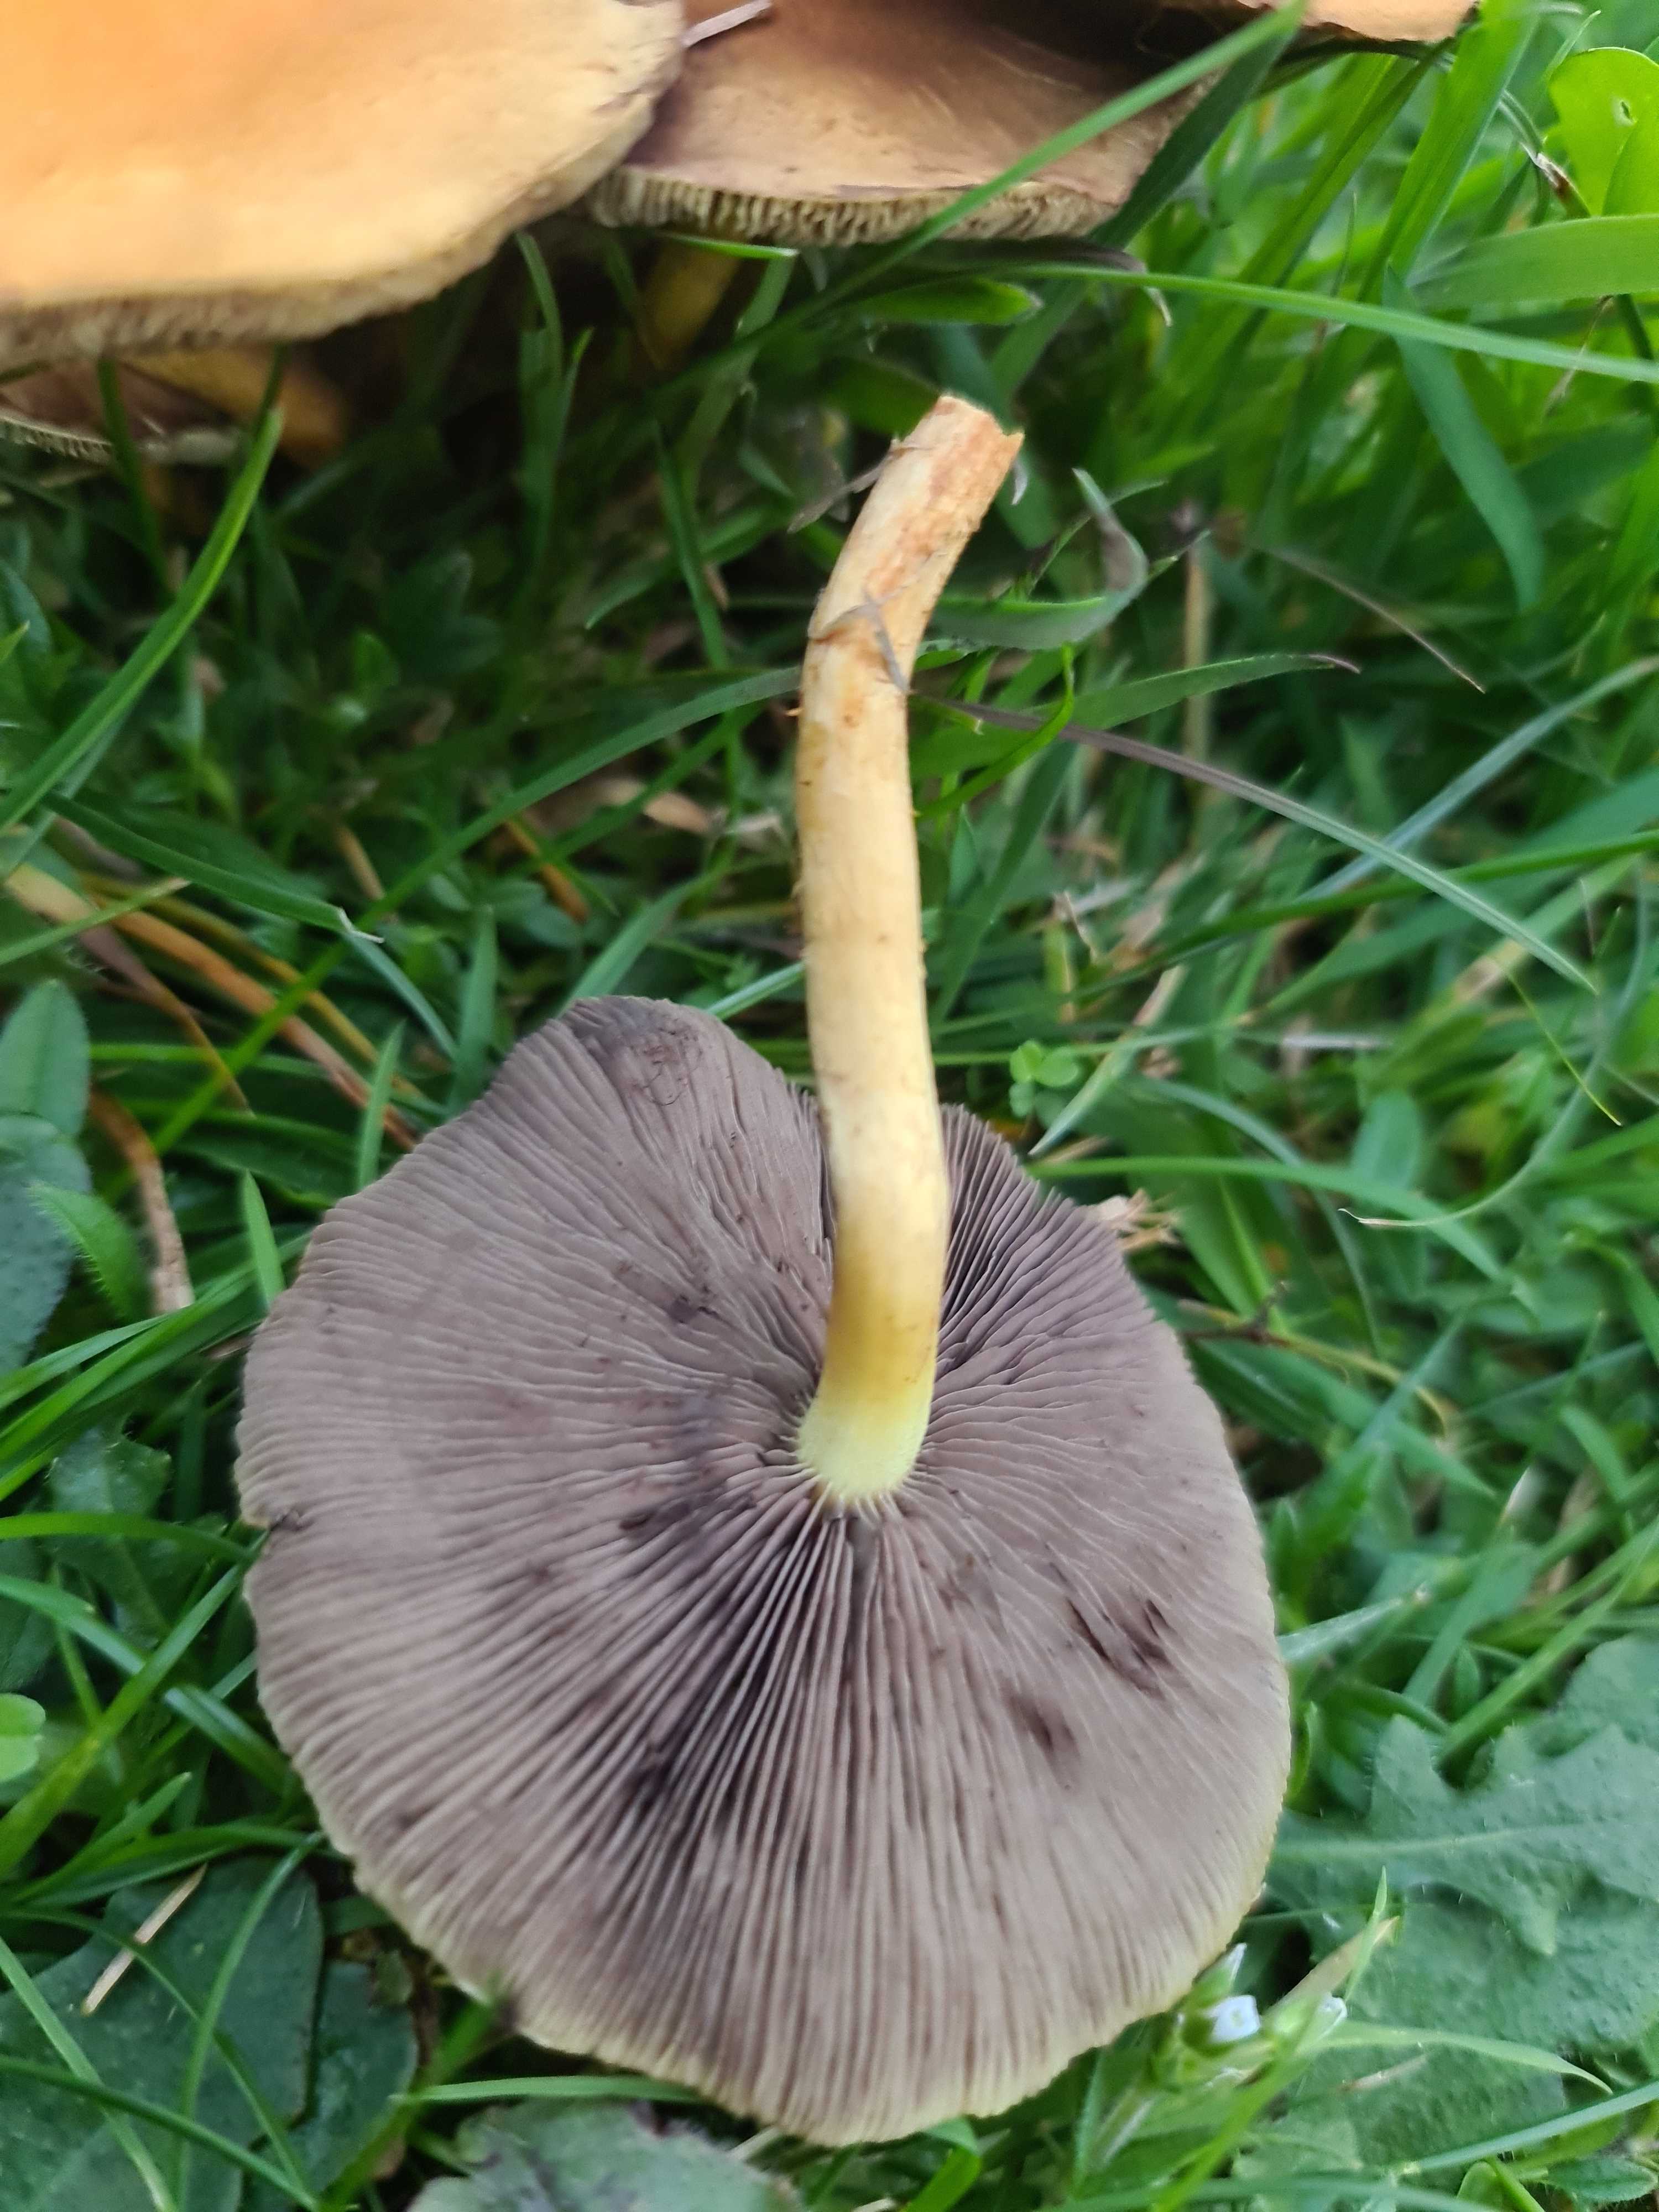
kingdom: Fungi
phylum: Basidiomycota
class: Agaricomycetes
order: Agaricales
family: Strophariaceae
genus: Hypholoma
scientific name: Hypholoma
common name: svovlhat
